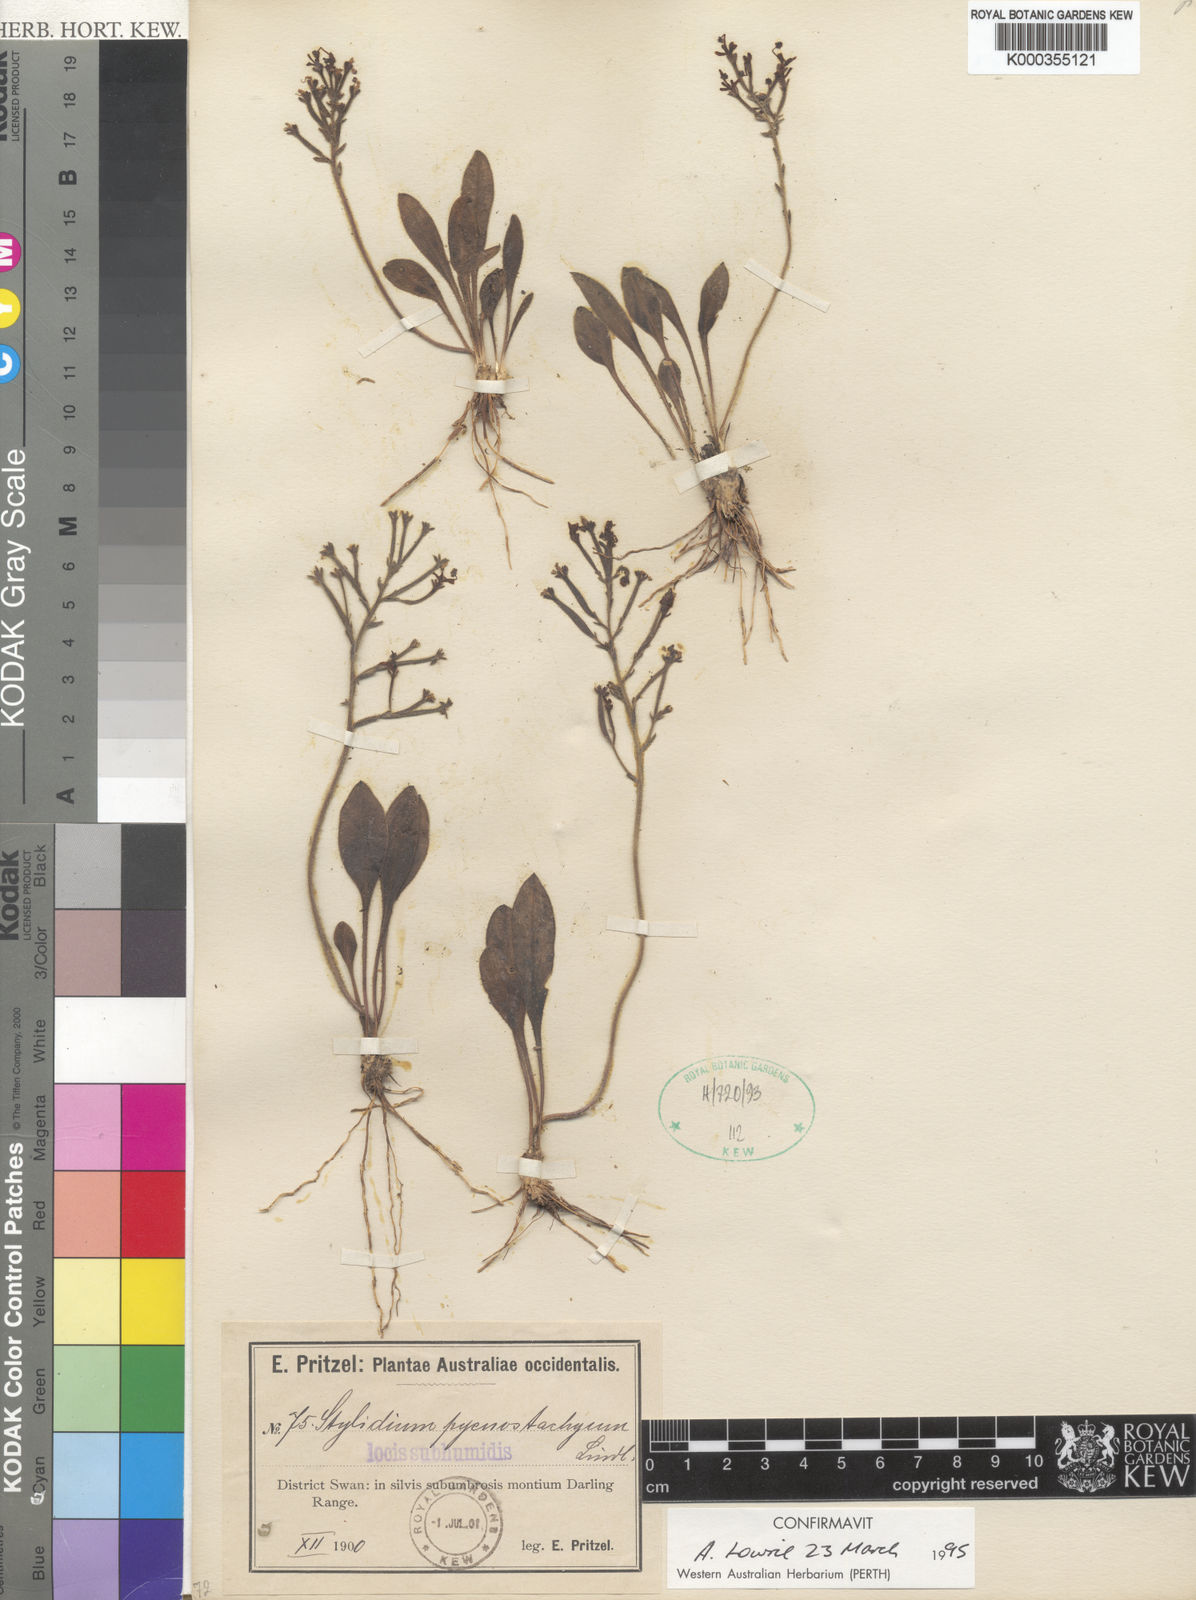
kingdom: Plantae
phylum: Tracheophyta
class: Magnoliopsida
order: Asterales
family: Stylidiaceae
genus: Stylidium
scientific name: Stylidium pycnostachyum
